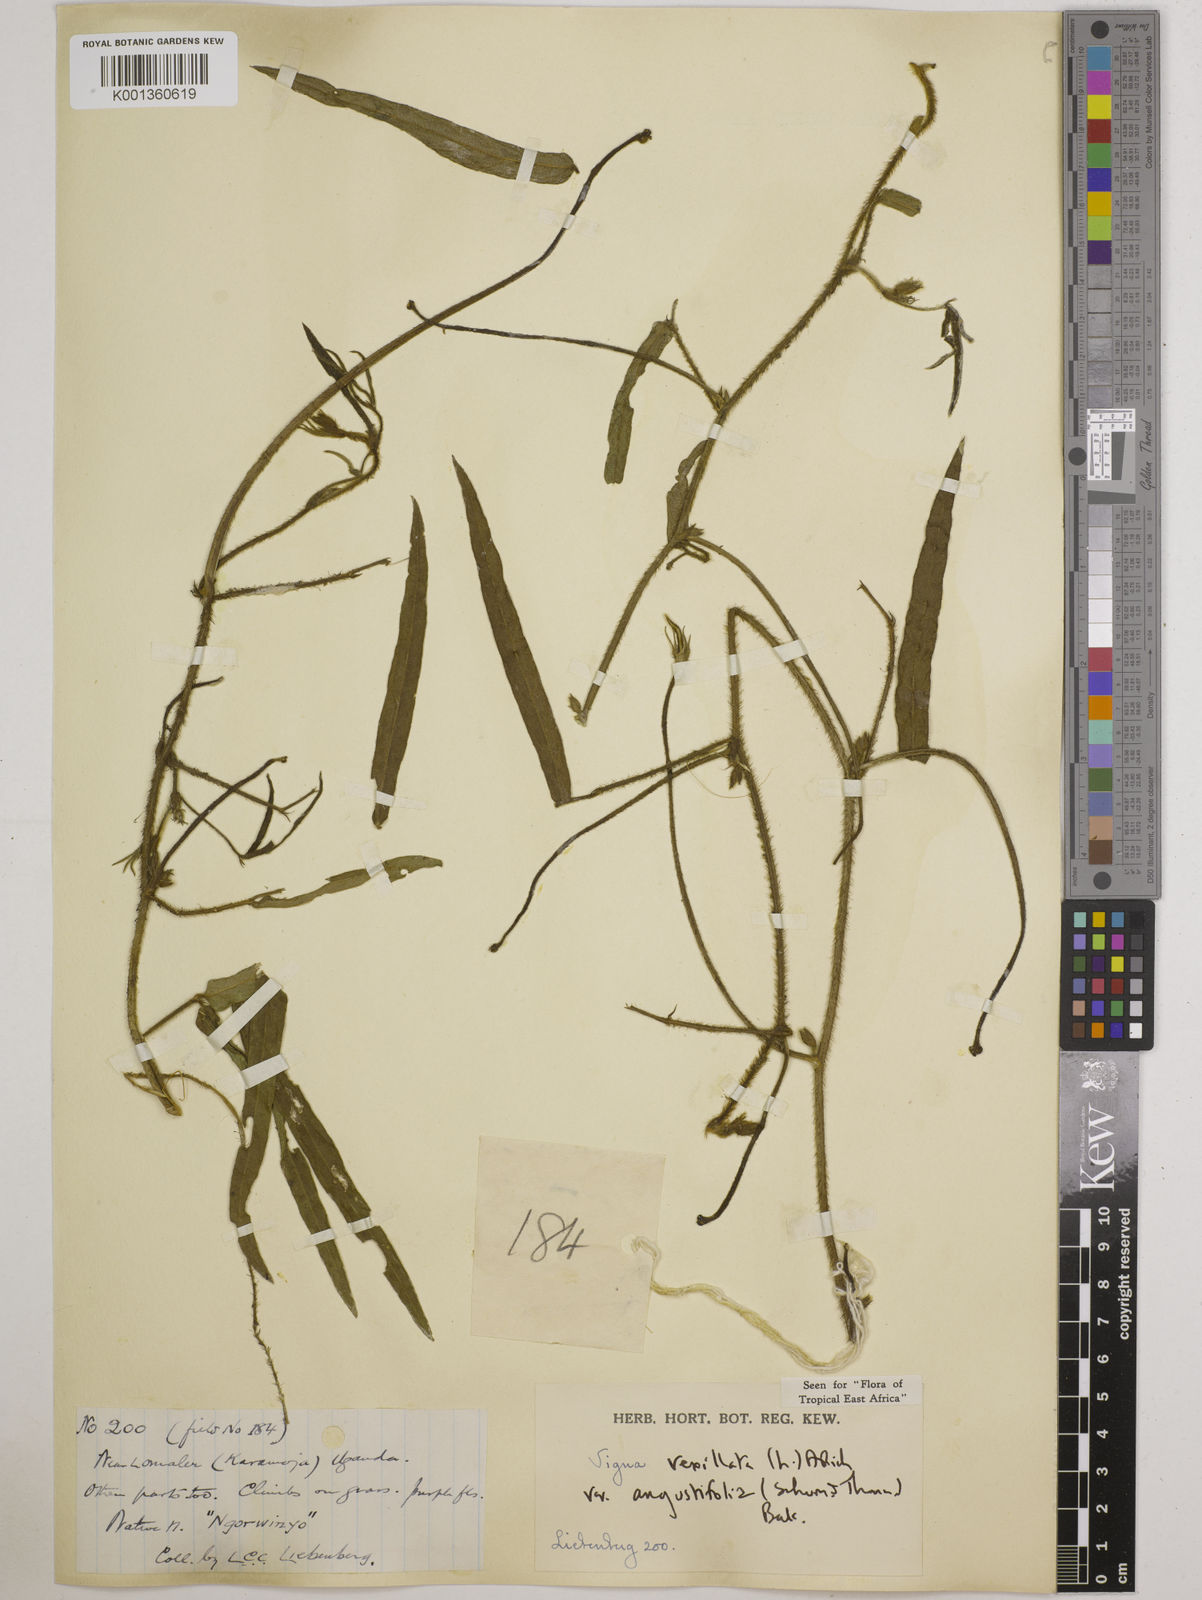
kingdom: Plantae
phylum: Tracheophyta
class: Magnoliopsida
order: Fabales
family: Fabaceae
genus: Vigna
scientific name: Vigna vexillata
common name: Zombi pea
